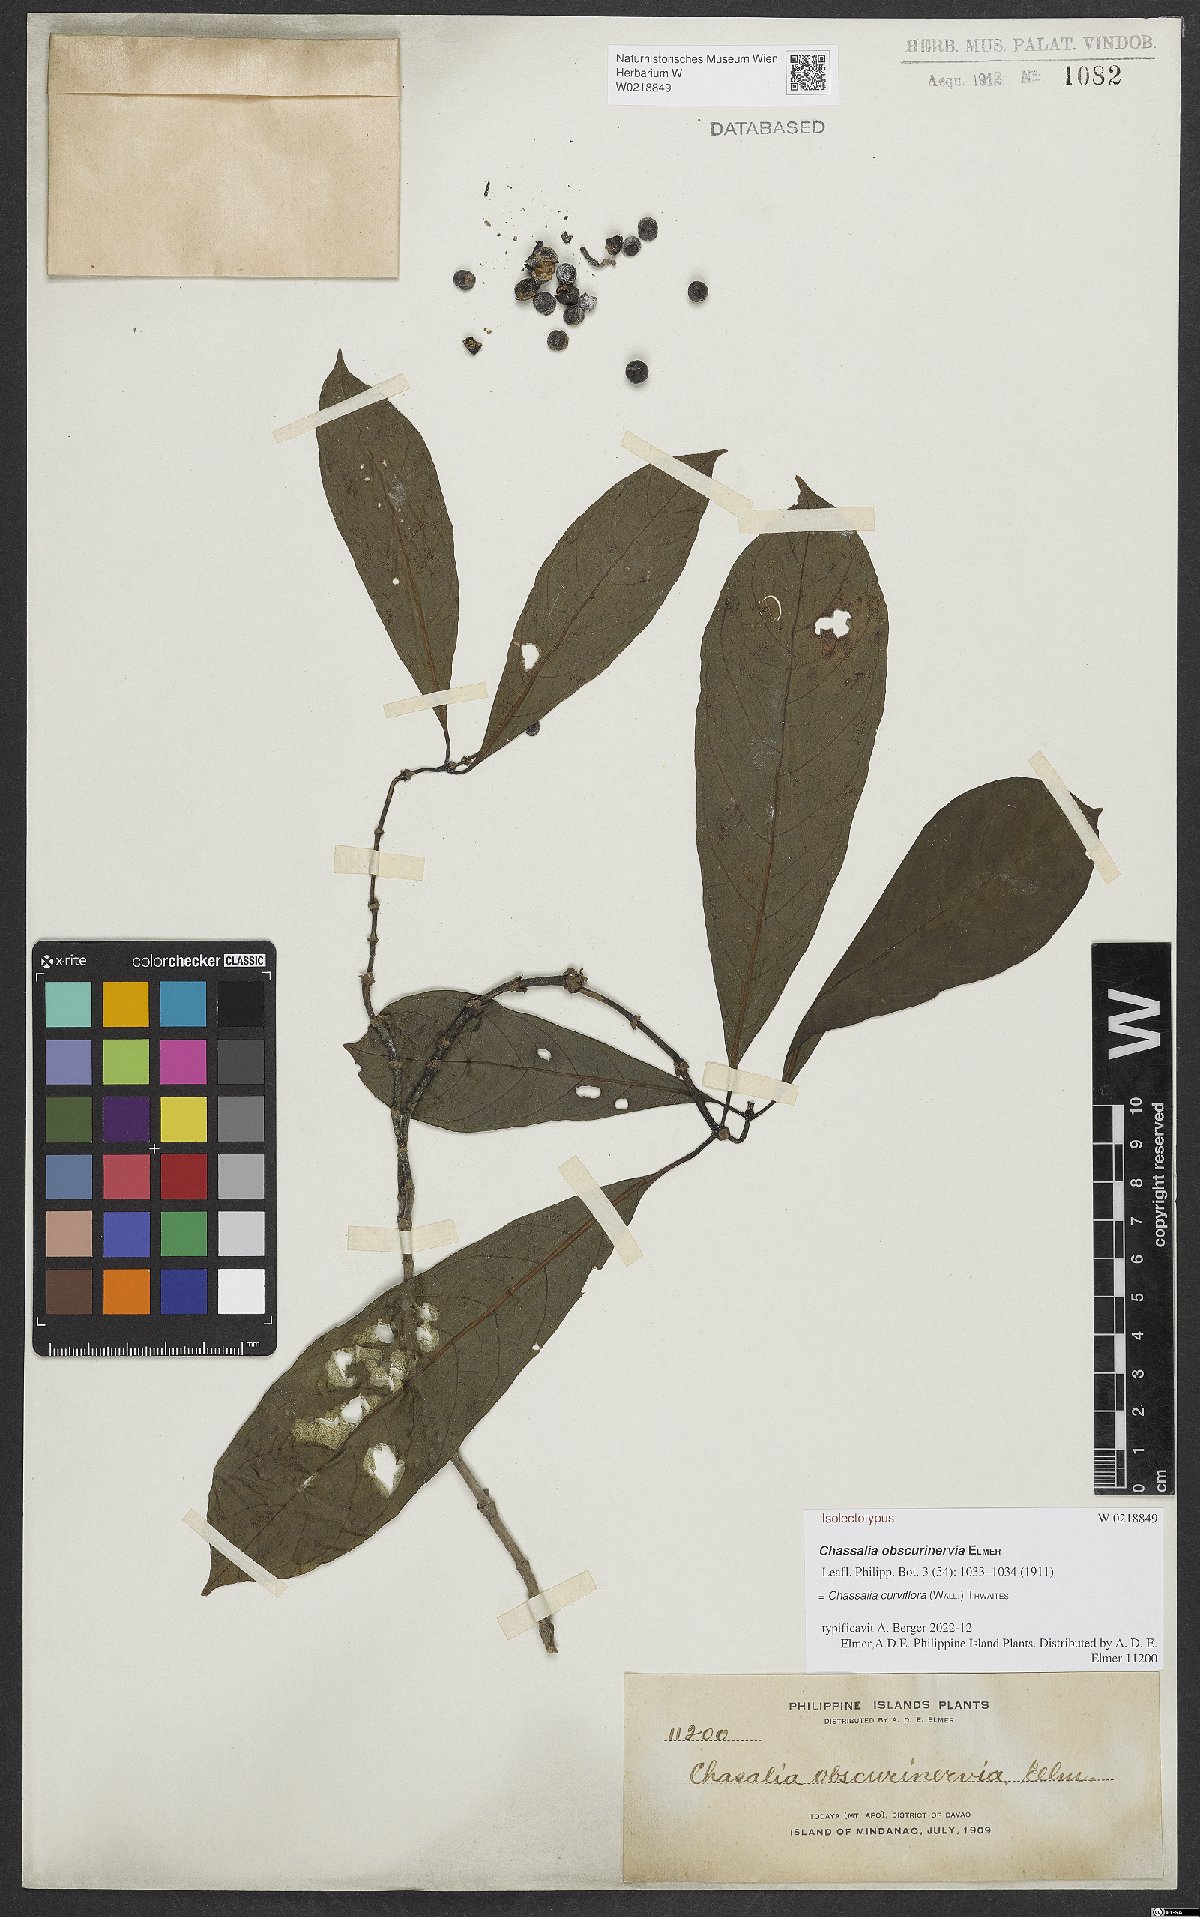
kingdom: Plantae
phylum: Tracheophyta
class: Magnoliopsida
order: Gentianales
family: Rubiaceae
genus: Chassalia
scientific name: Chassalia curviflora
